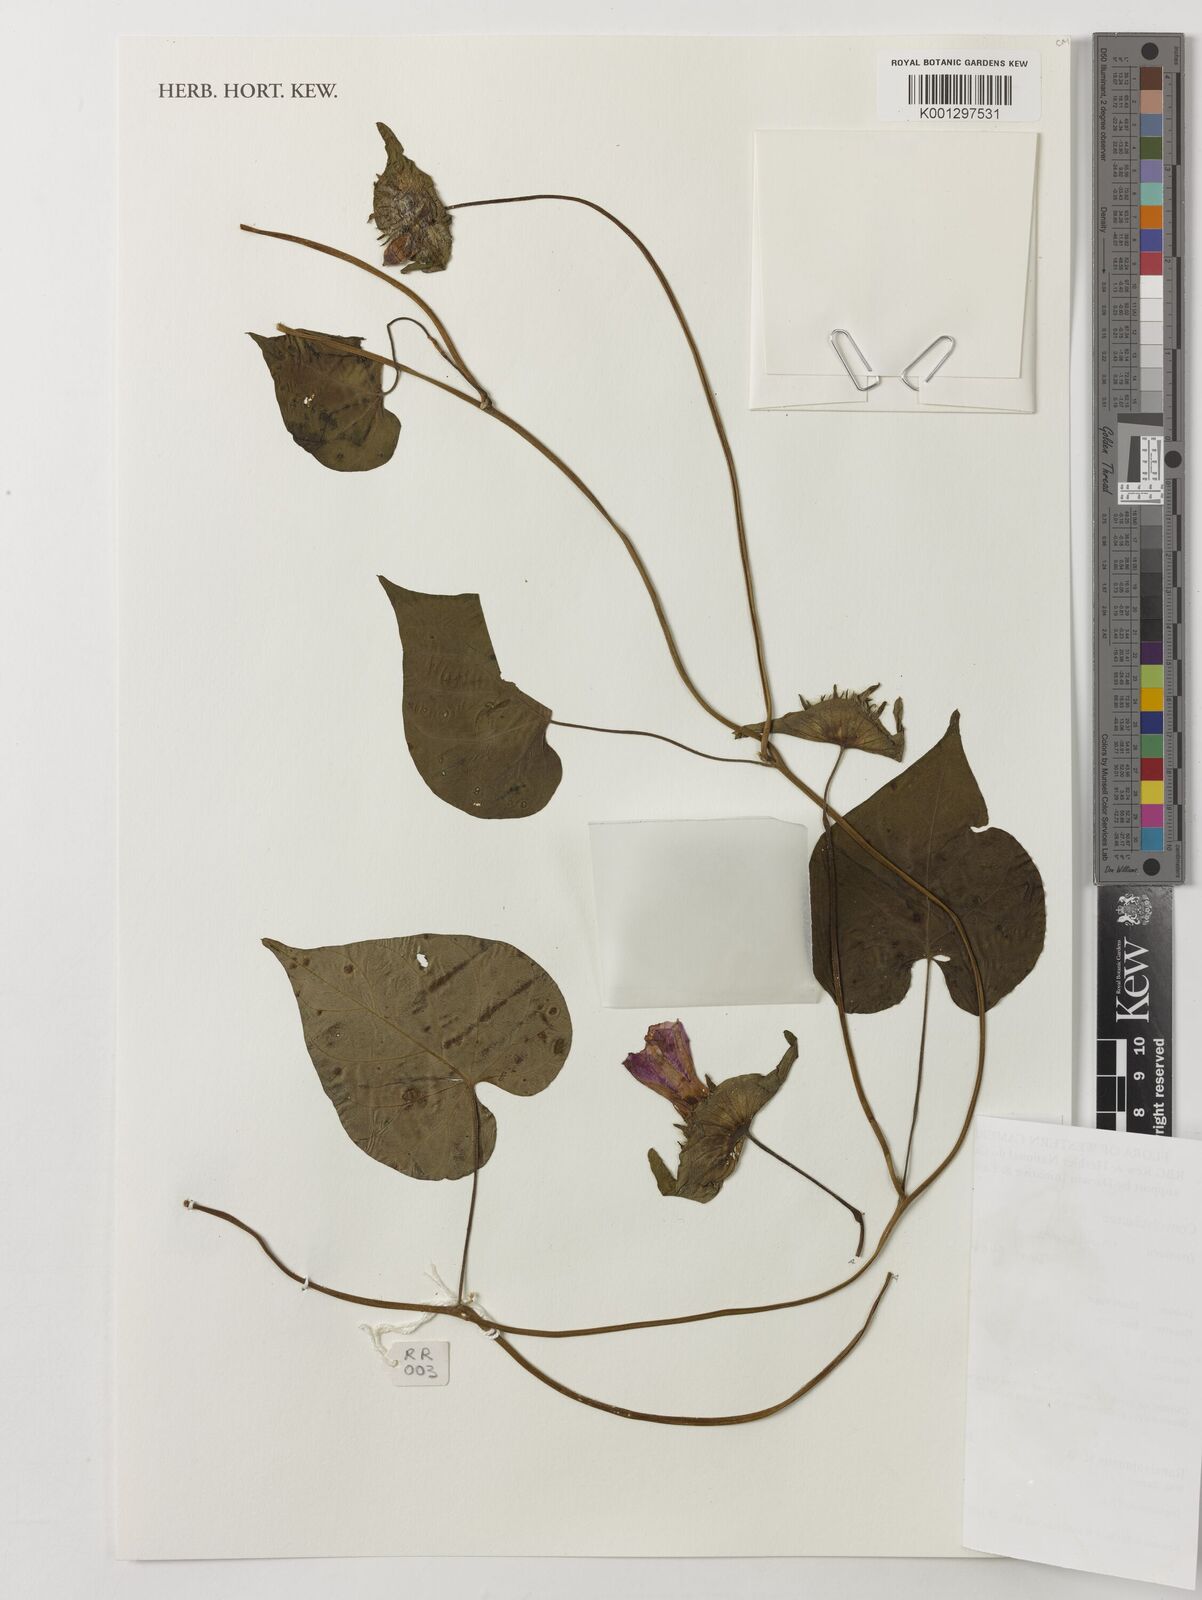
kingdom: Plantae
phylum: Tracheophyta
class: Magnoliopsida
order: Solanales
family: Convolvulaceae
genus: Ipomoea
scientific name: Ipomoea involucrata
